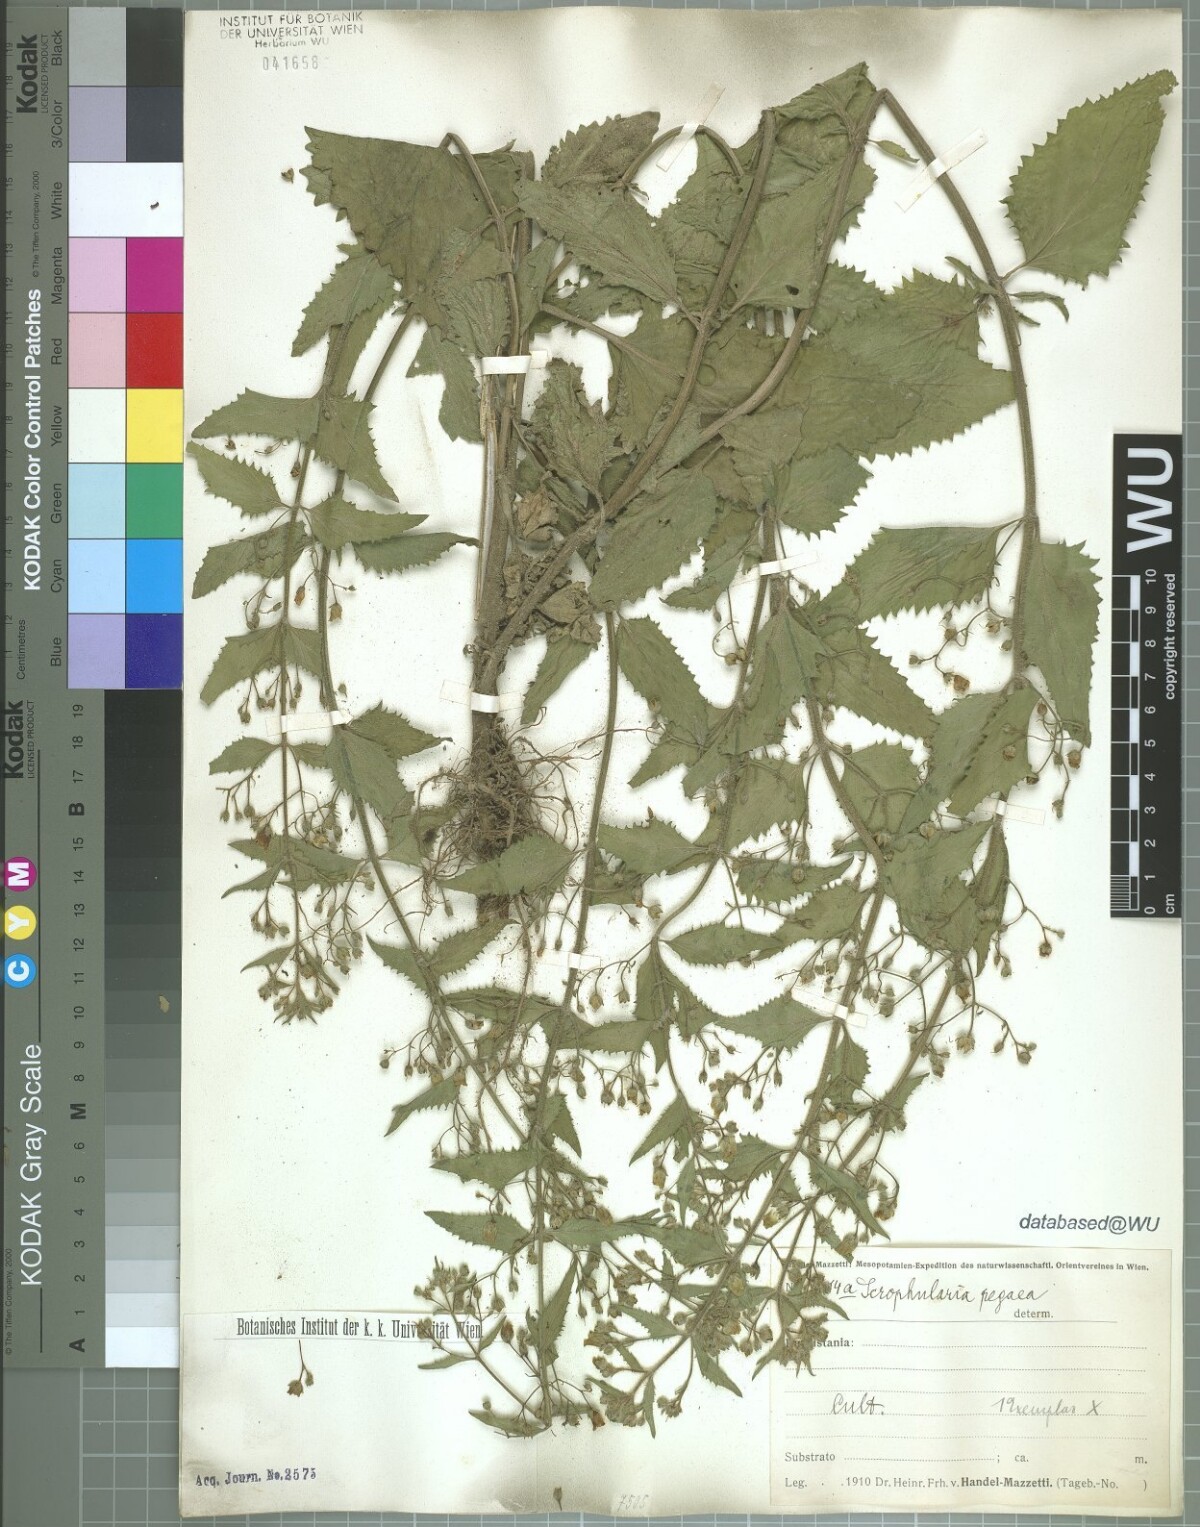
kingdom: Plantae
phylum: Tracheophyta
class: Magnoliopsida
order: Lamiales
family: Scrophulariaceae
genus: Scrophularia
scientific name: Scrophularia pegaea
